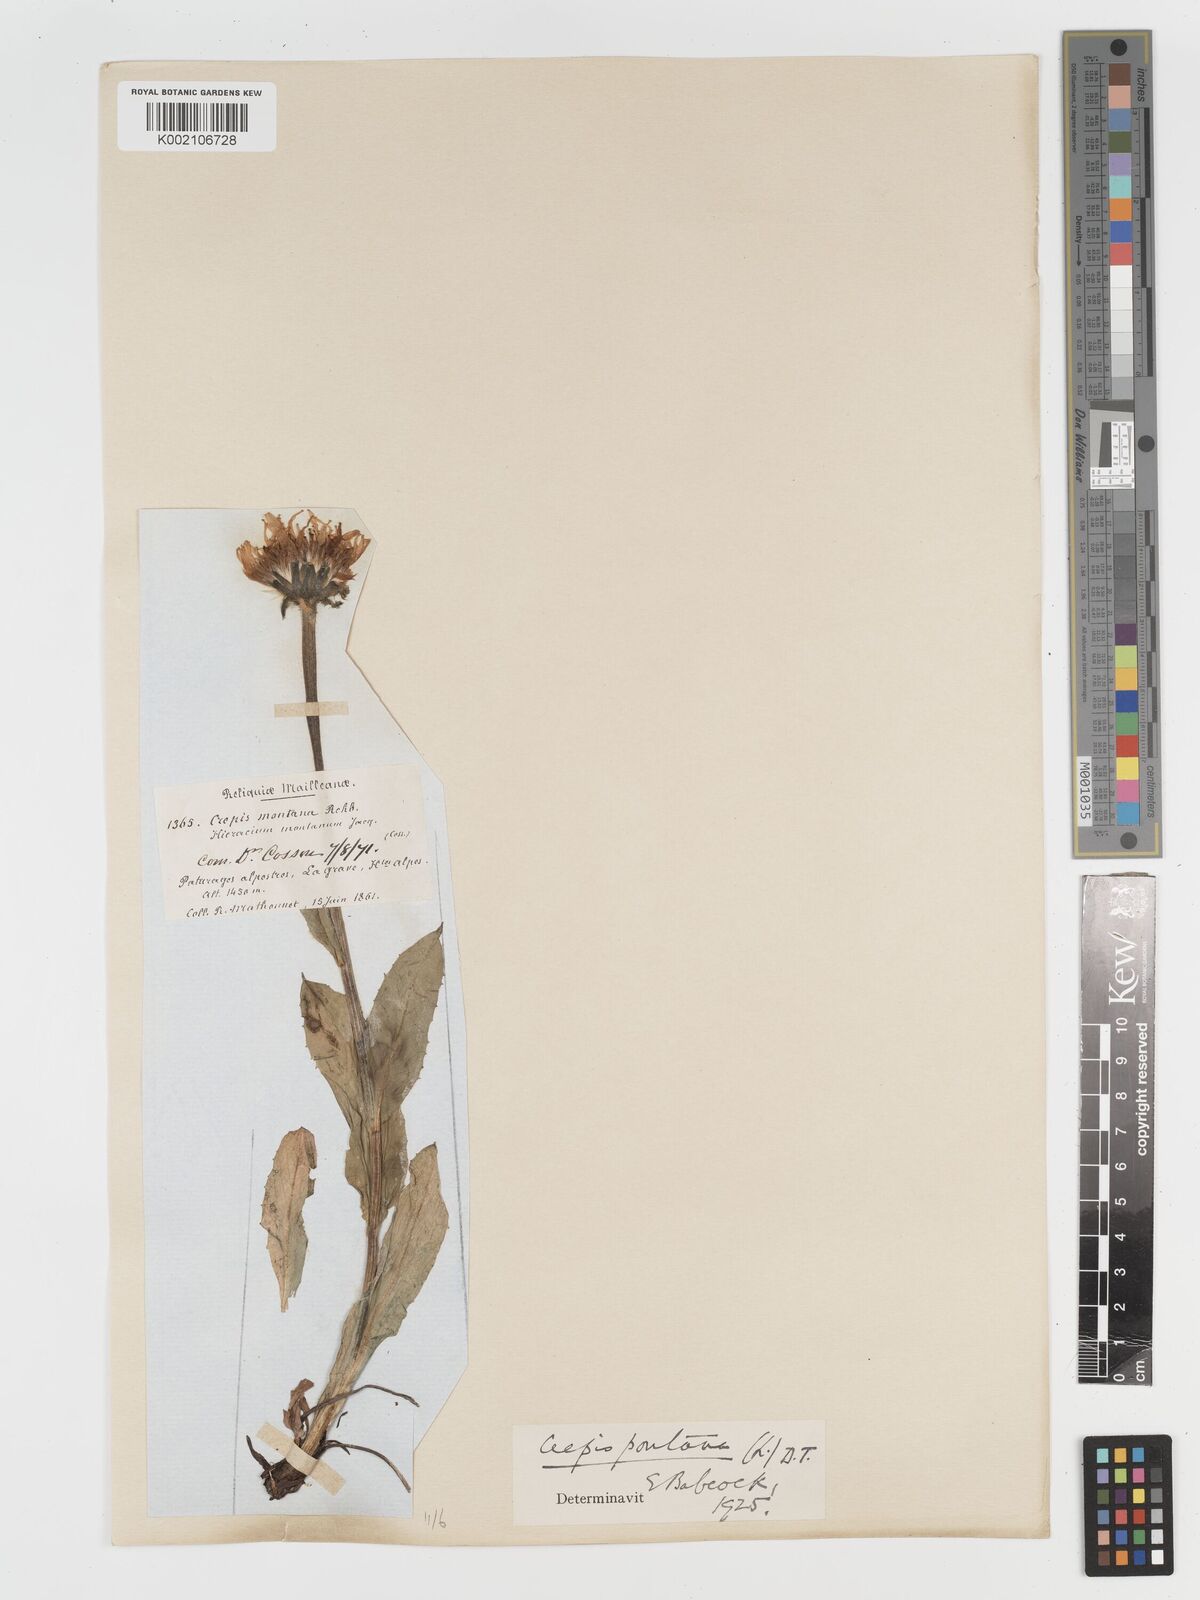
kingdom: Plantae
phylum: Tracheophyta
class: Magnoliopsida
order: Asterales
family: Asteraceae
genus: Crepis
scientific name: Crepis pontana
